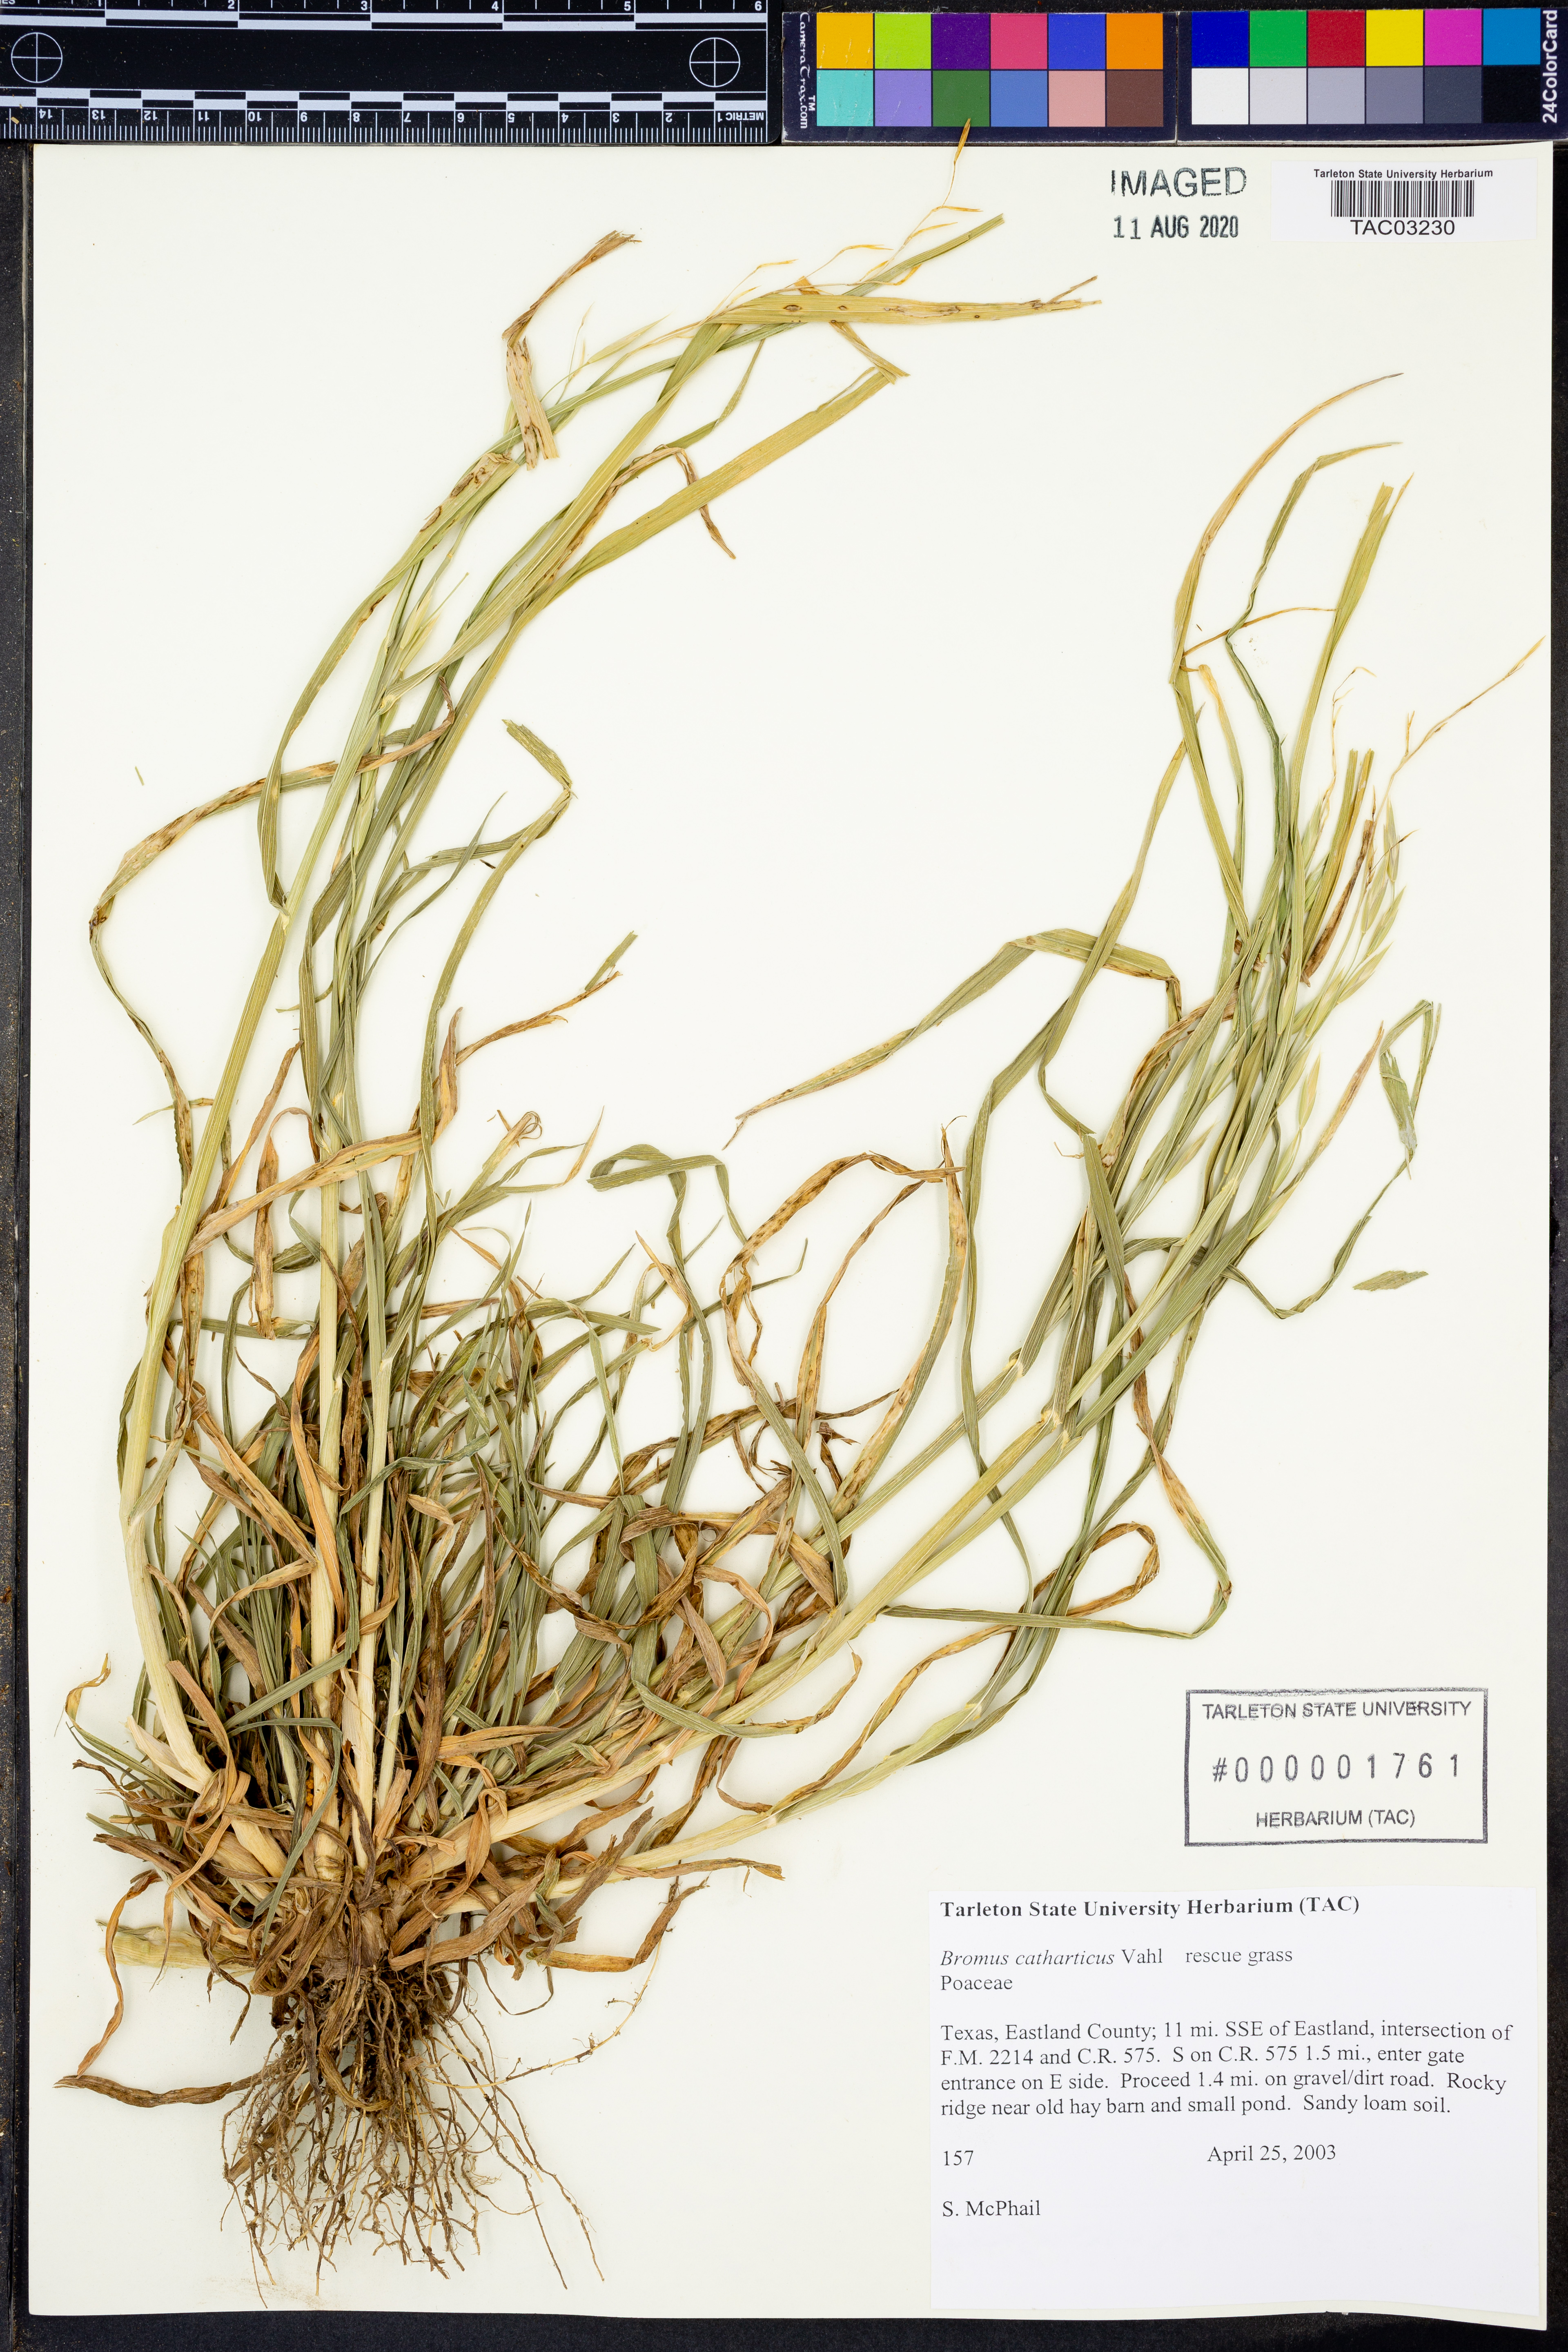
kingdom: Plantae
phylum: Tracheophyta
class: Liliopsida
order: Poales
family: Poaceae
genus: Bromus
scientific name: Bromus catharticus
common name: Rescuegrass
